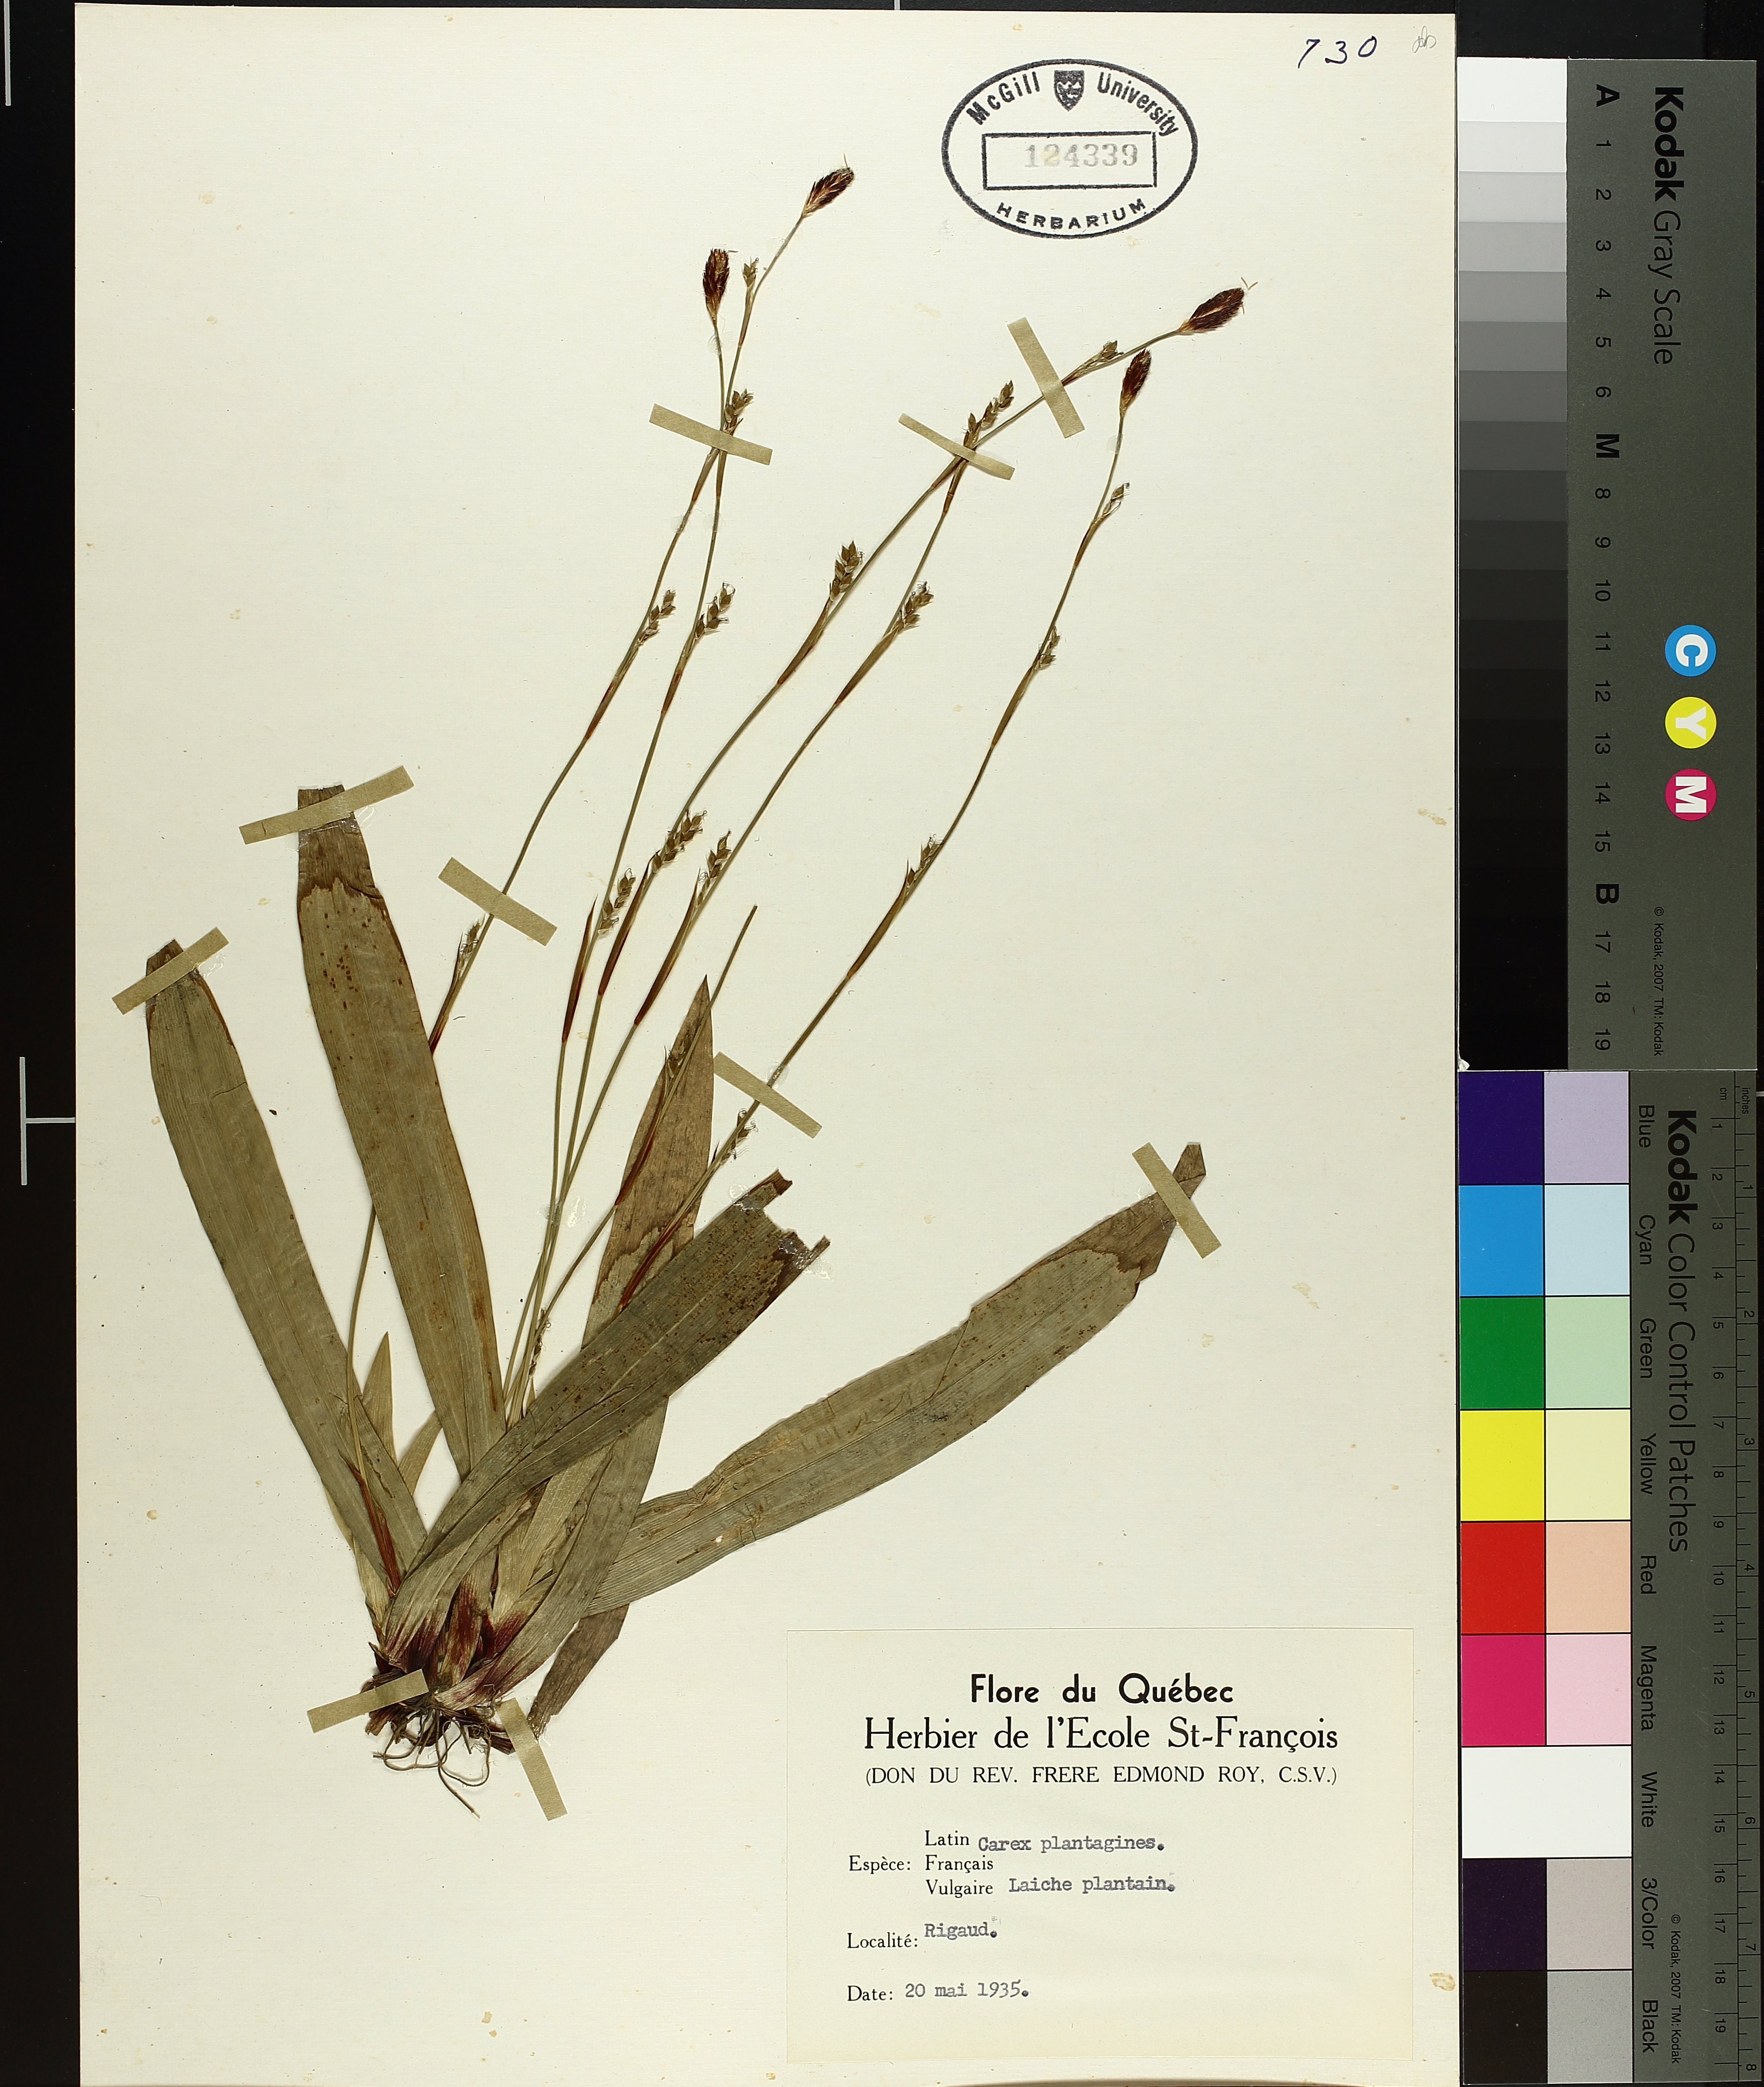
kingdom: Plantae
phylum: Tracheophyta
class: Liliopsida
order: Poales
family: Cyperaceae
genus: Carex
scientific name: Carex plantaginea
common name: Plantain-leaved sedge
